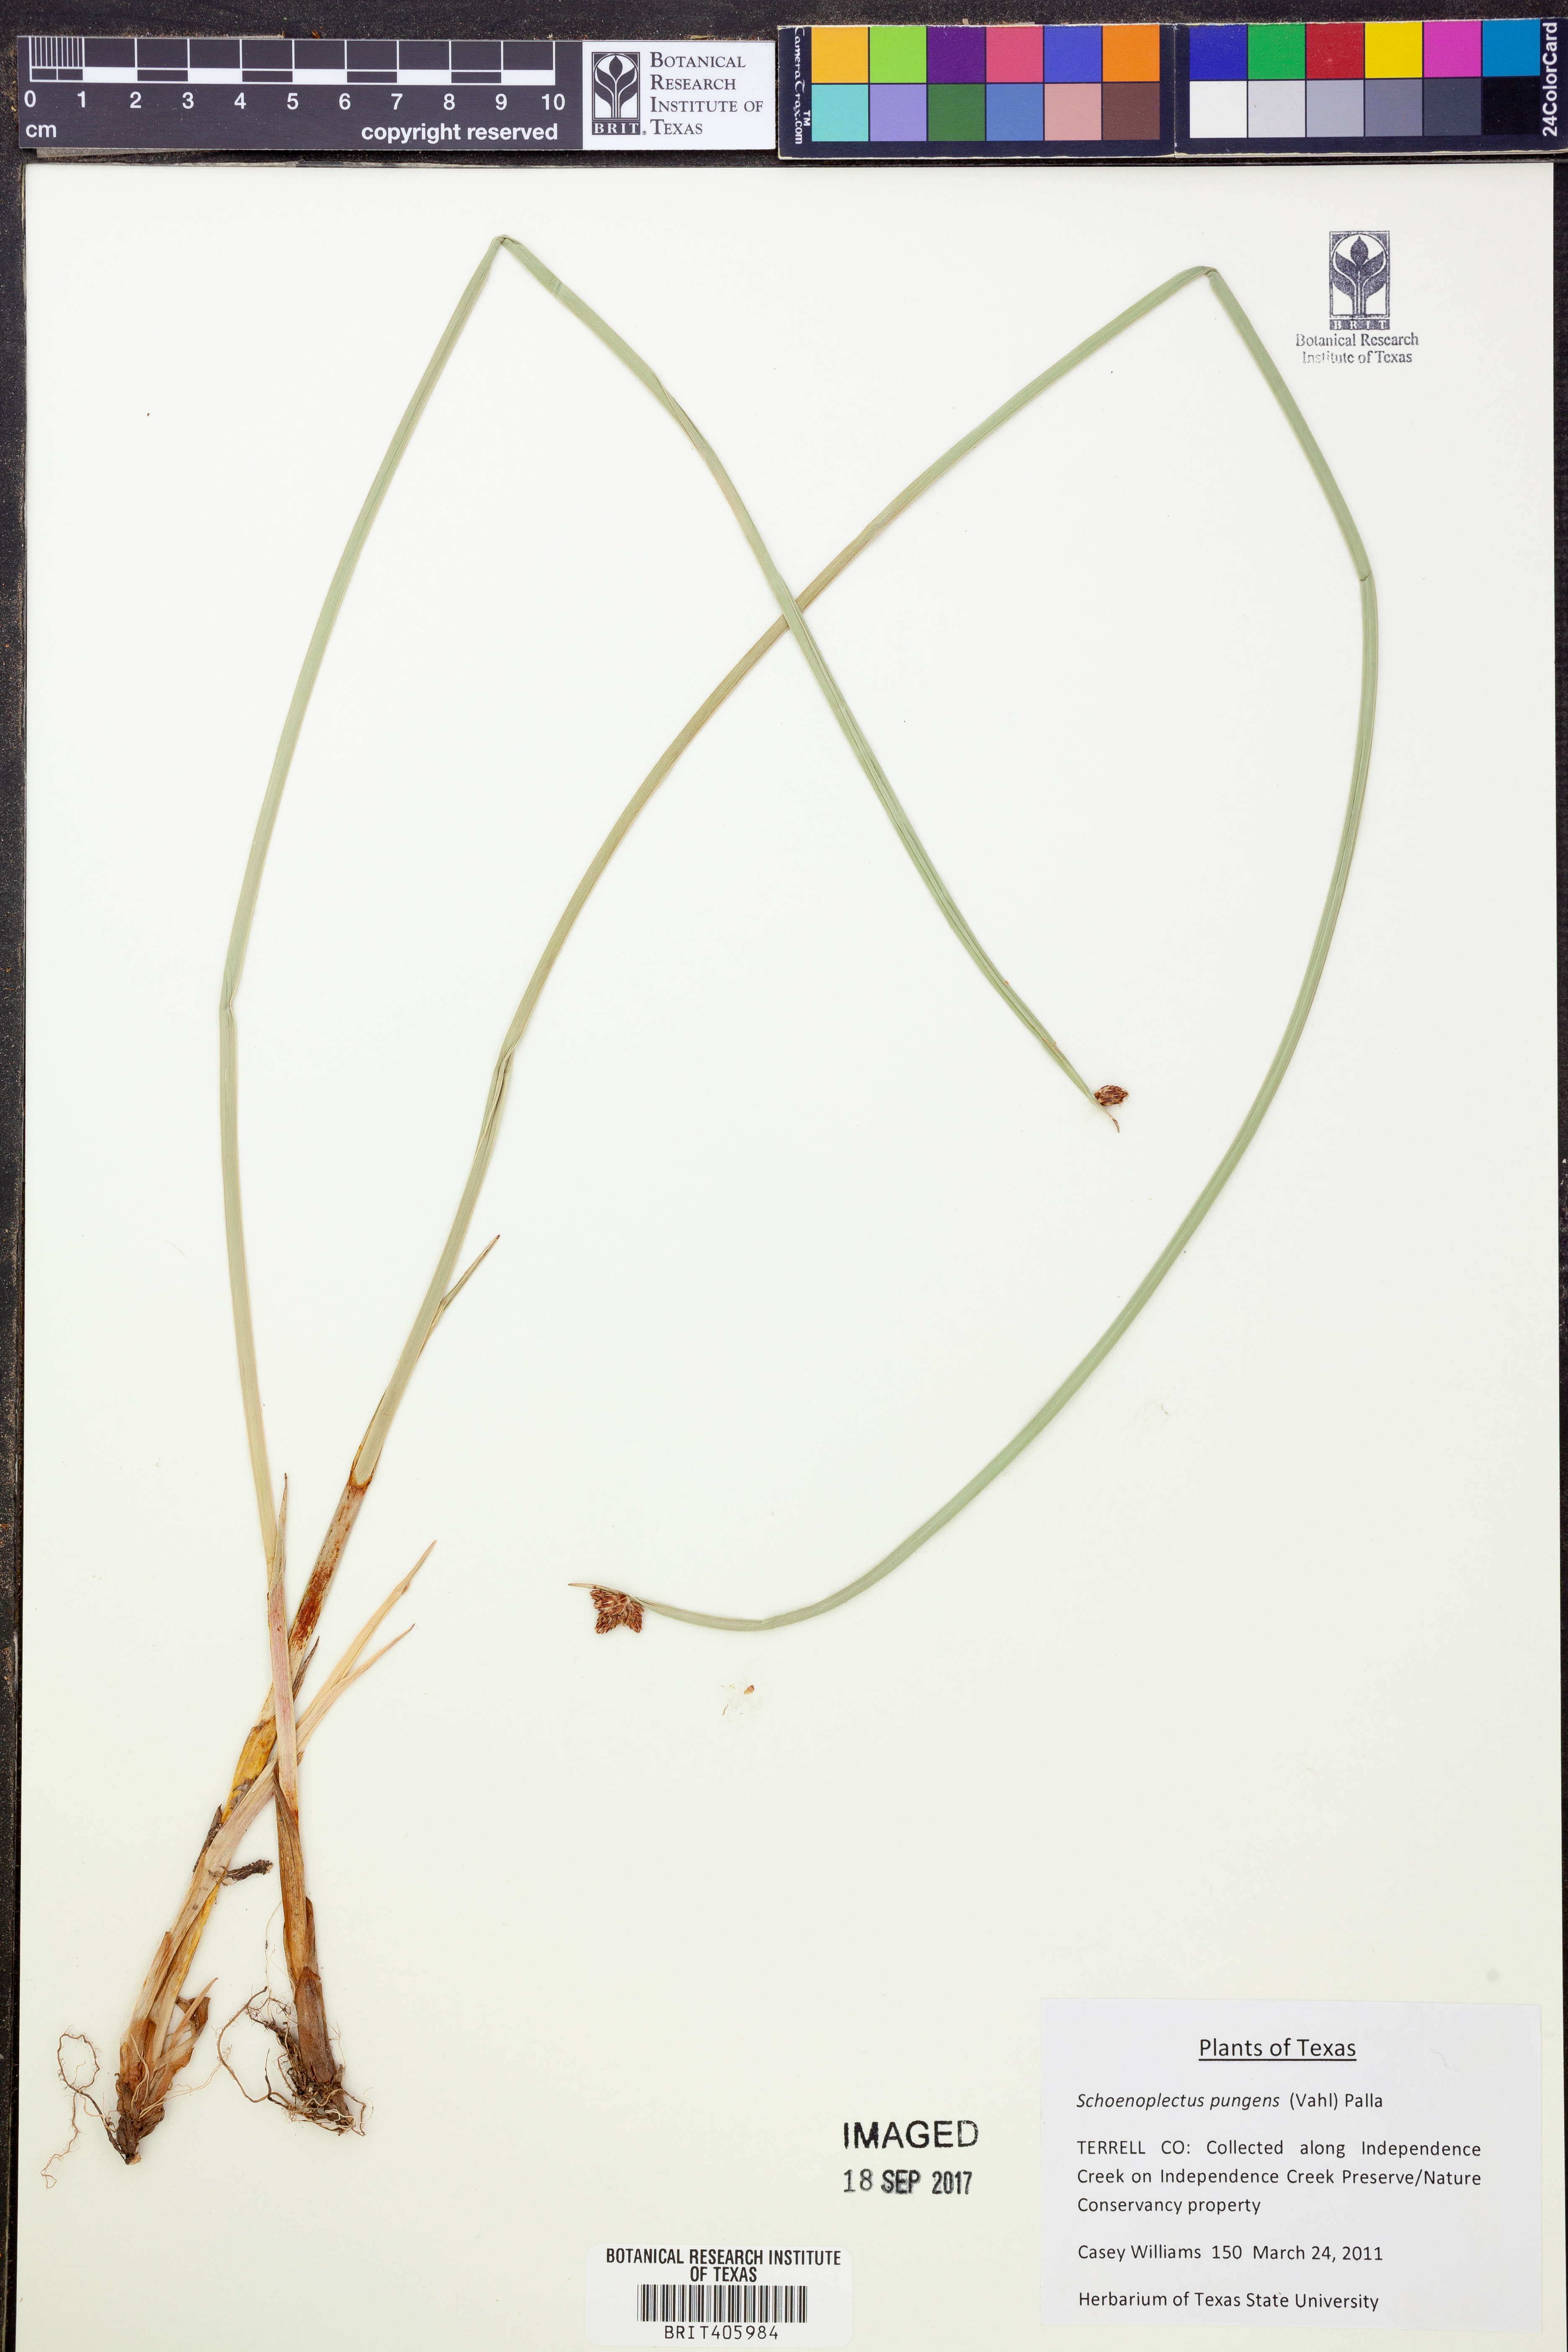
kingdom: Plantae
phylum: Tracheophyta
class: Liliopsida
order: Poales
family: Cyperaceae
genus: Schoenoplectus
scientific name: Schoenoplectus pungens
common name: Sharp club-rush
